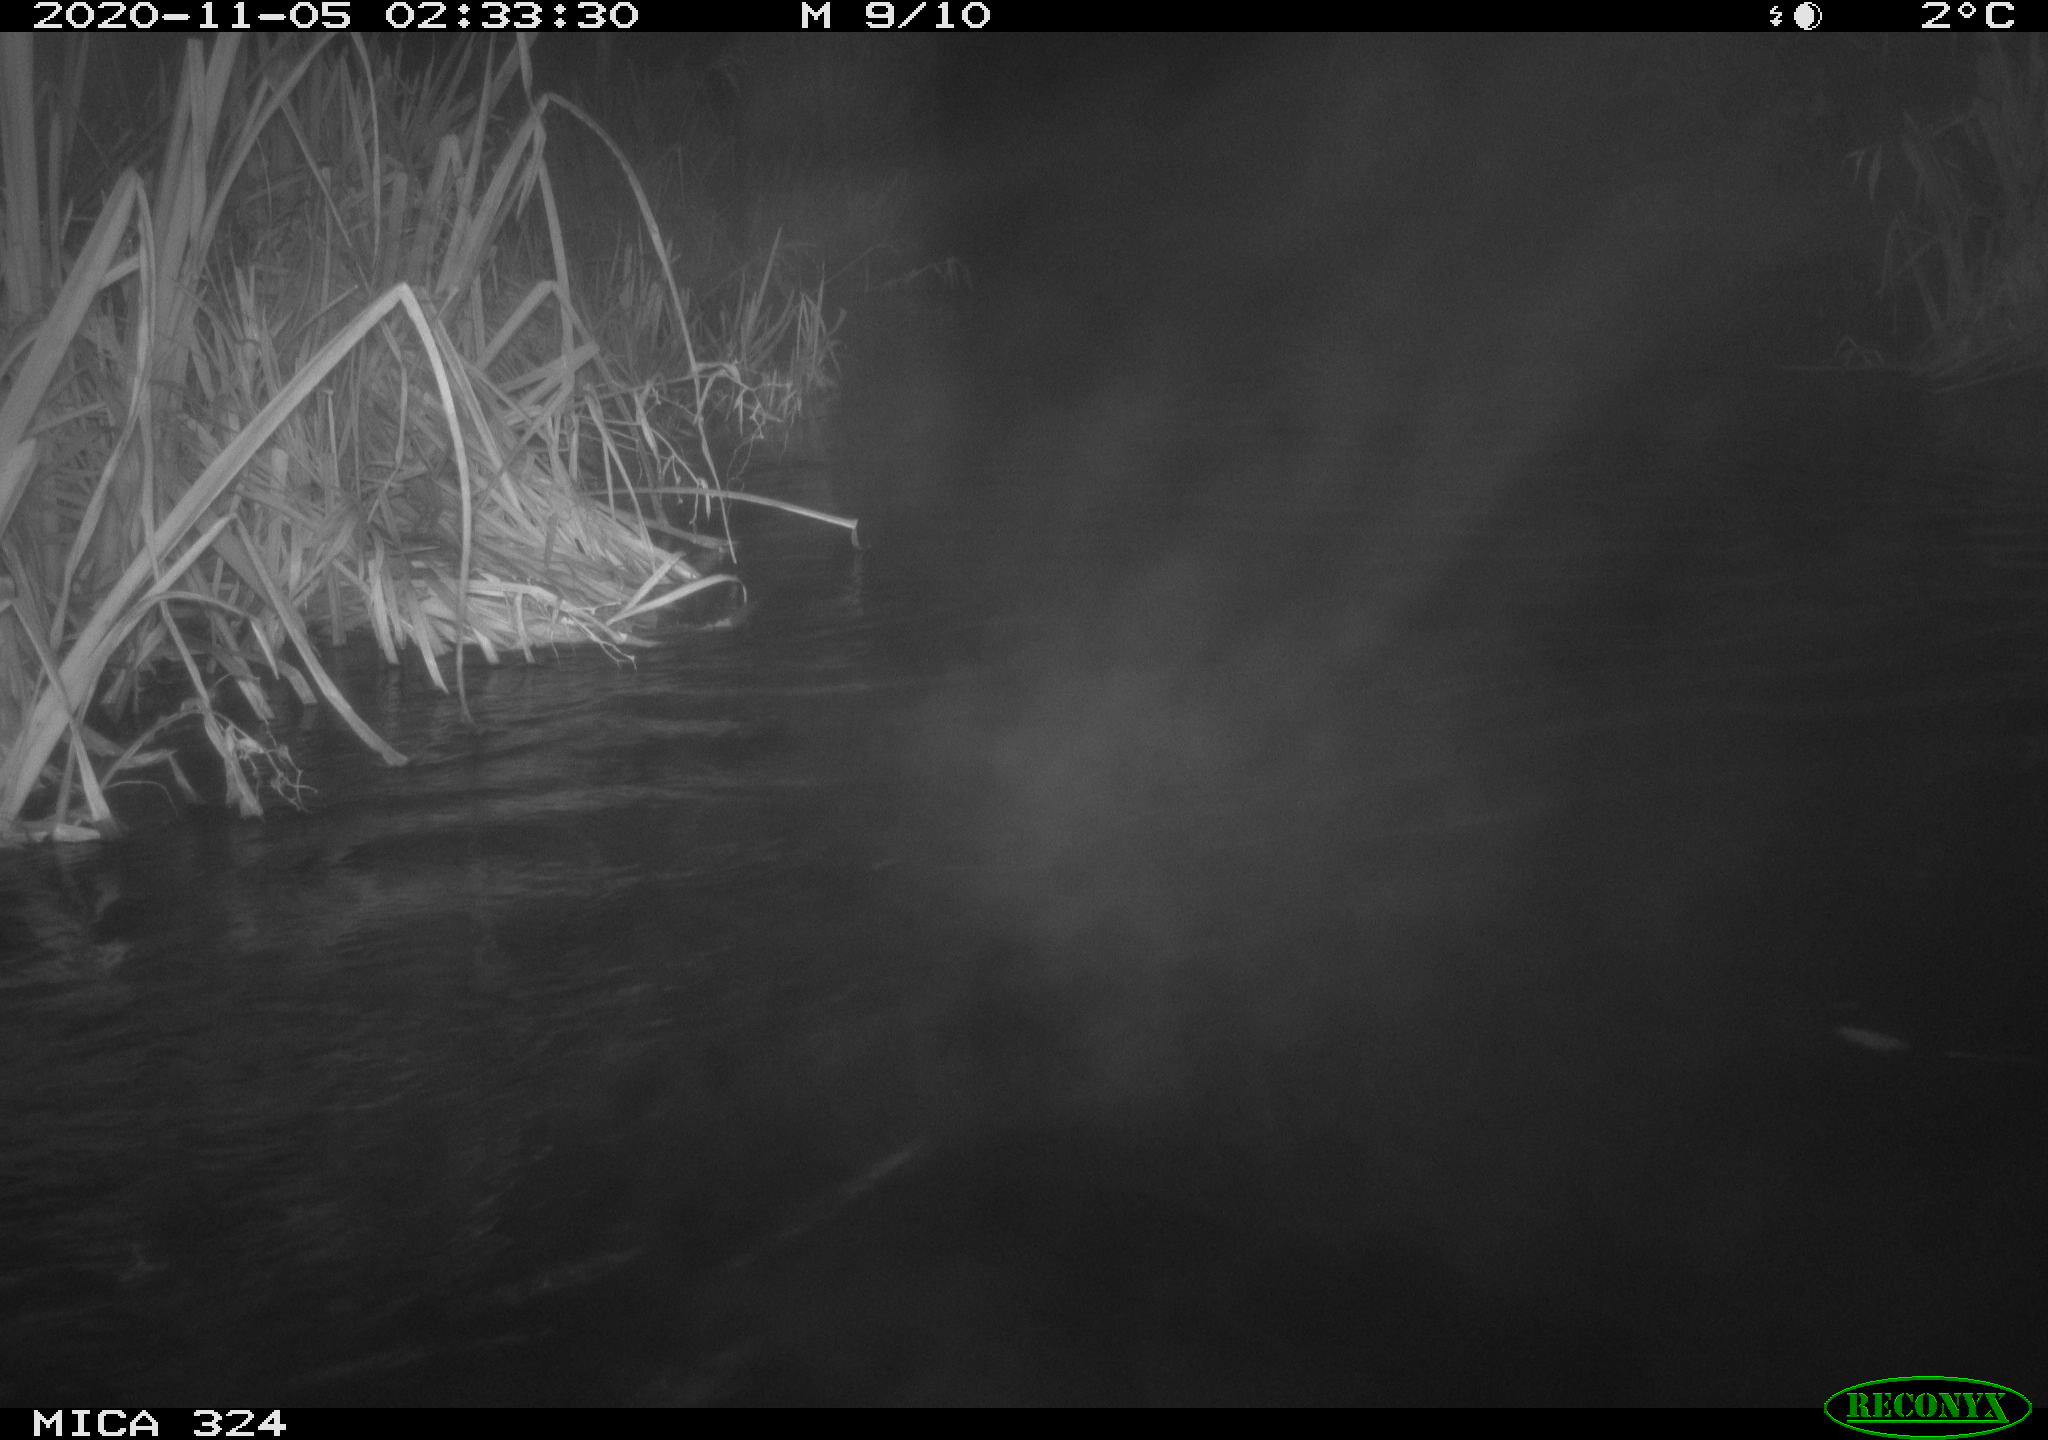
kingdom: Animalia
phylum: Chordata
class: Mammalia
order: Rodentia
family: Myocastoridae
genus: Myocastor
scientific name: Myocastor coypus
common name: Coypu
